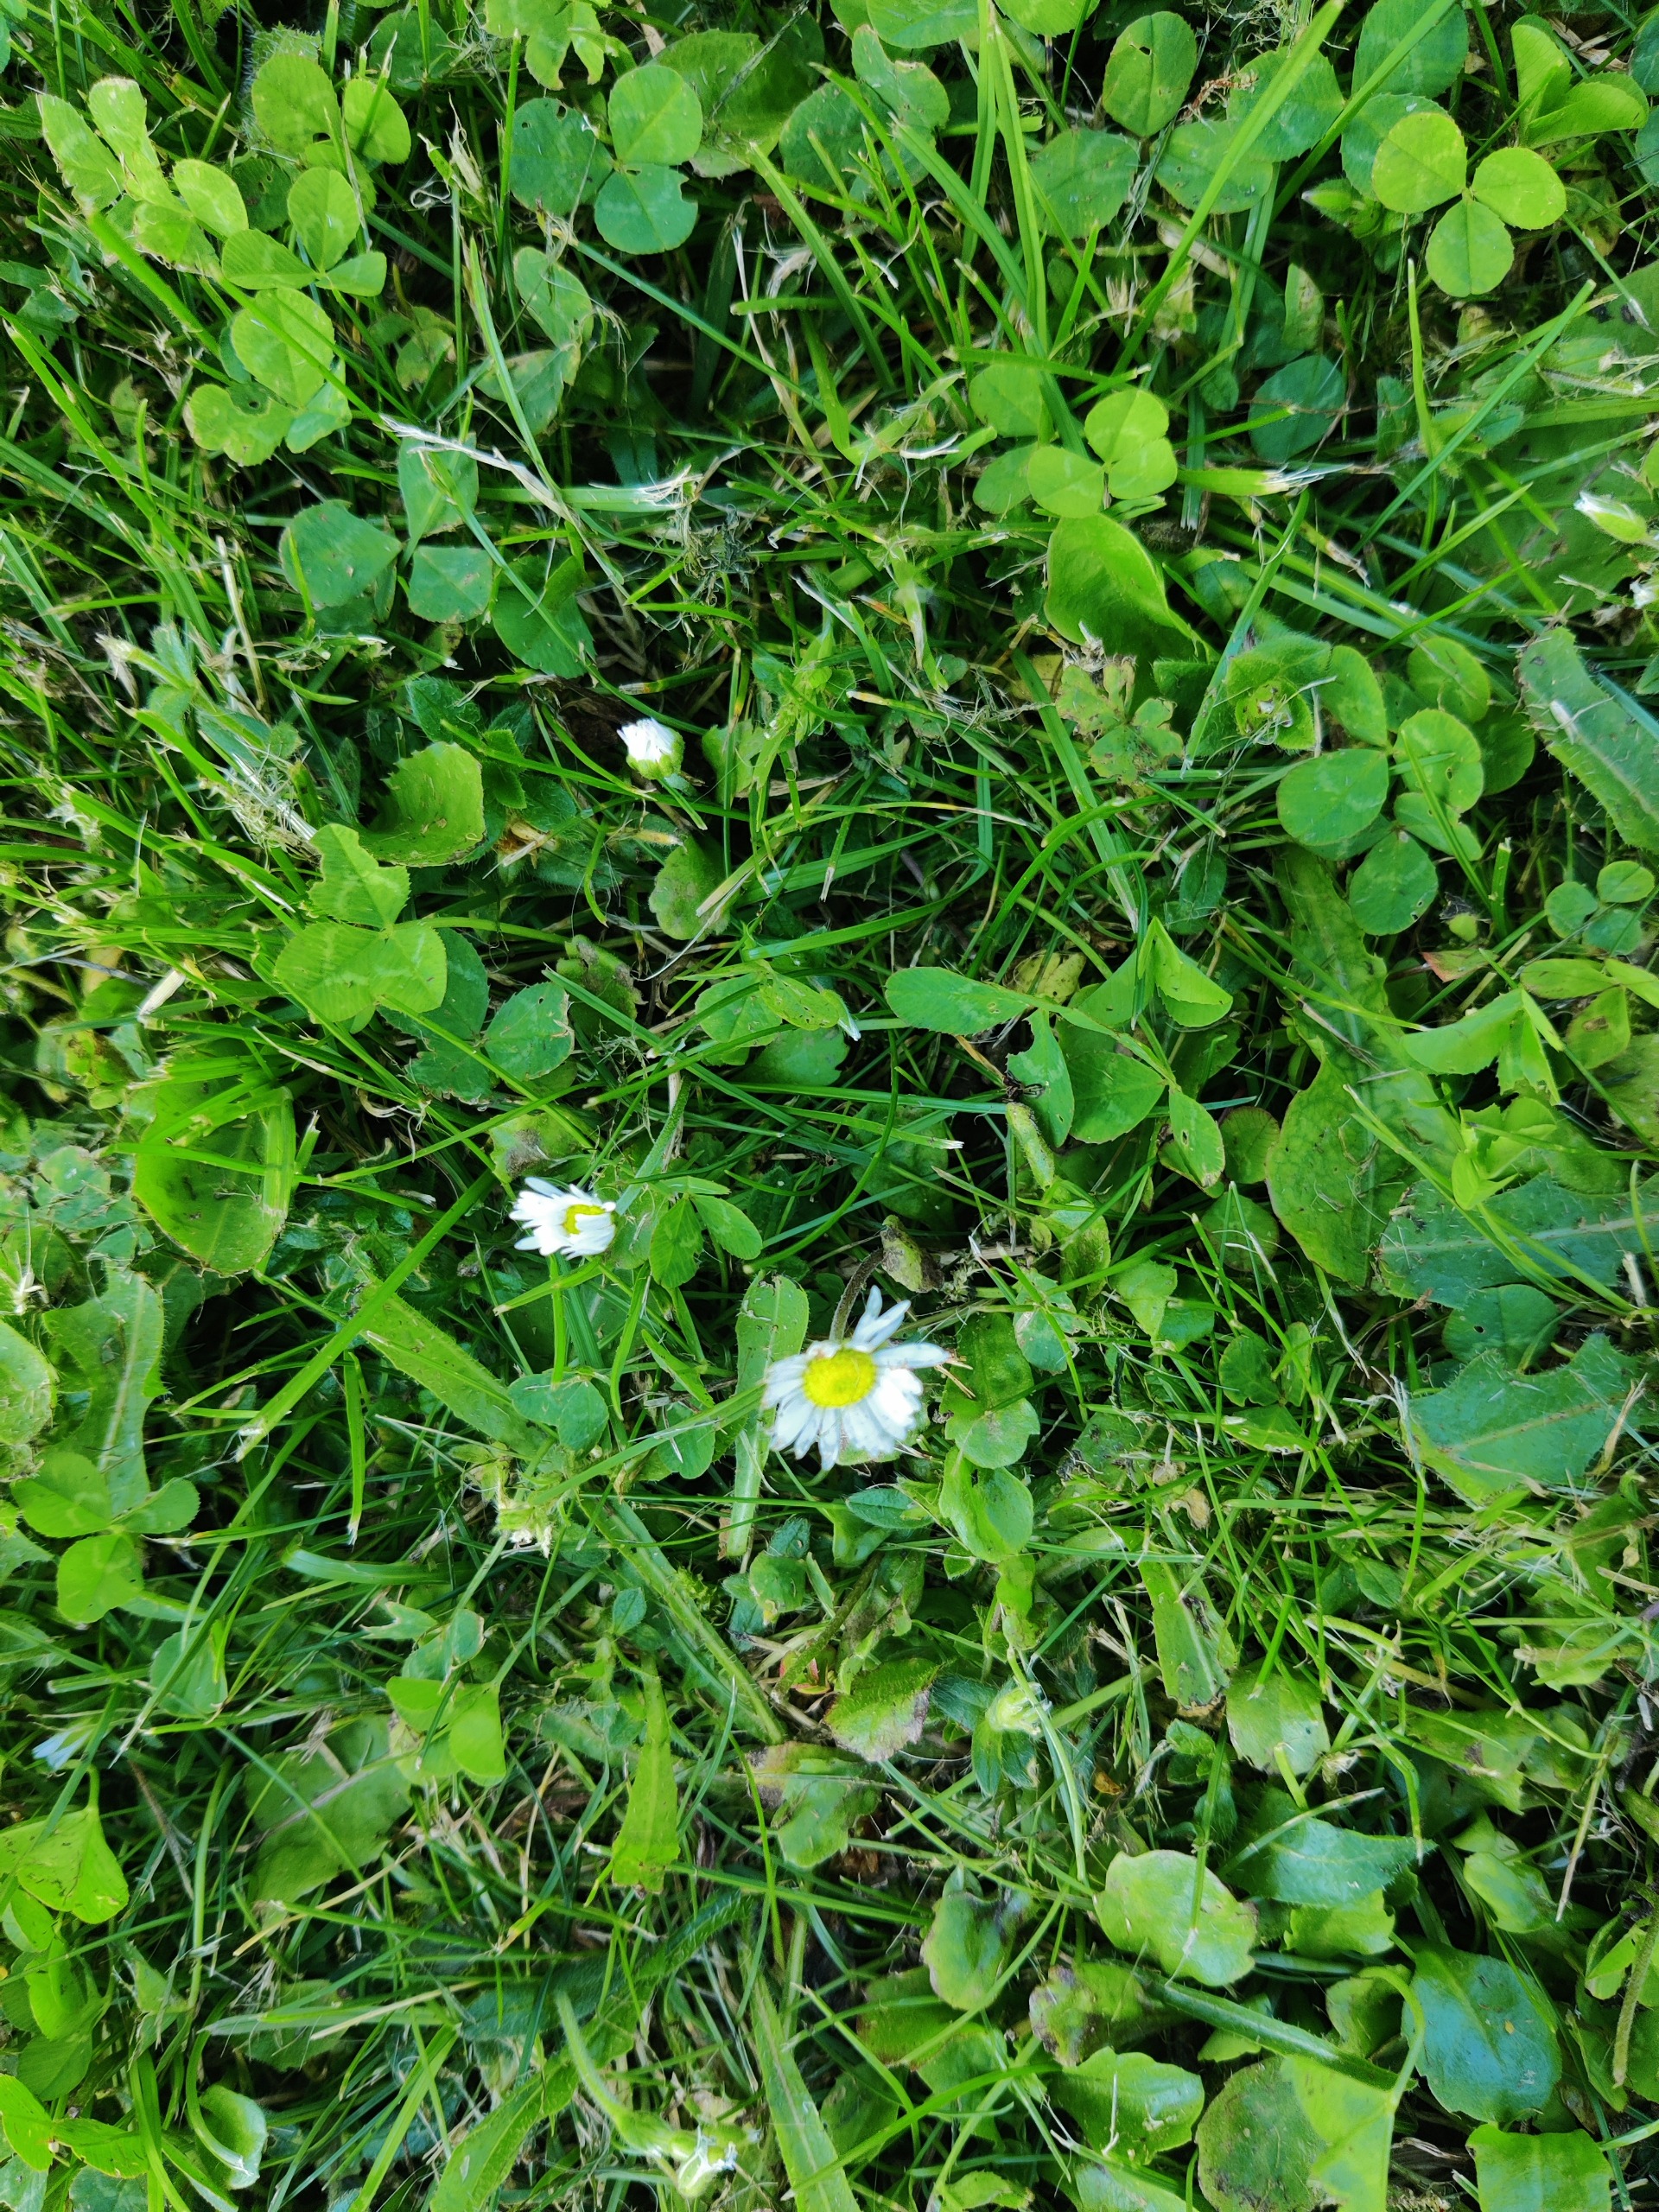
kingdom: Plantae
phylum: Tracheophyta
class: Magnoliopsida
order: Asterales
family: Asteraceae
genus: Bellis
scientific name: Bellis perennis
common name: Tusindfryd
